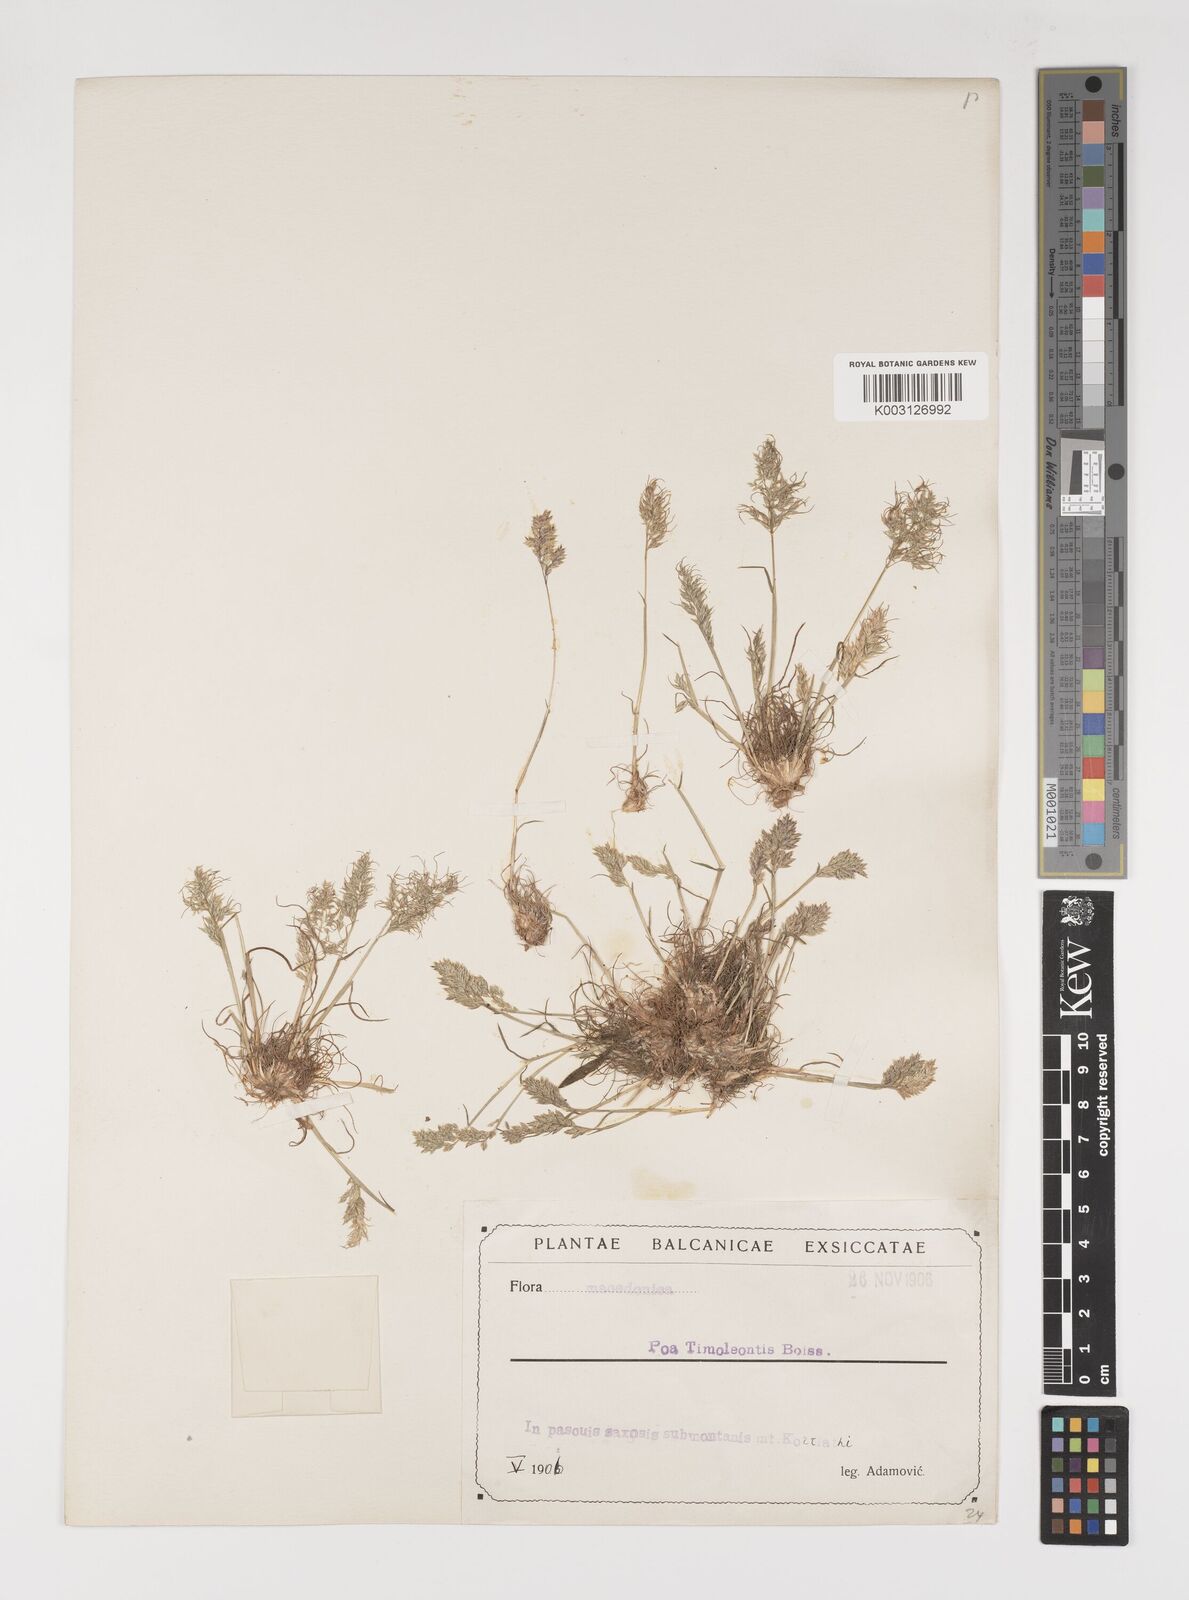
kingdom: Plantae
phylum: Tracheophyta
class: Liliopsida
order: Poales
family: Poaceae
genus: Poa
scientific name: Poa timoleontis
